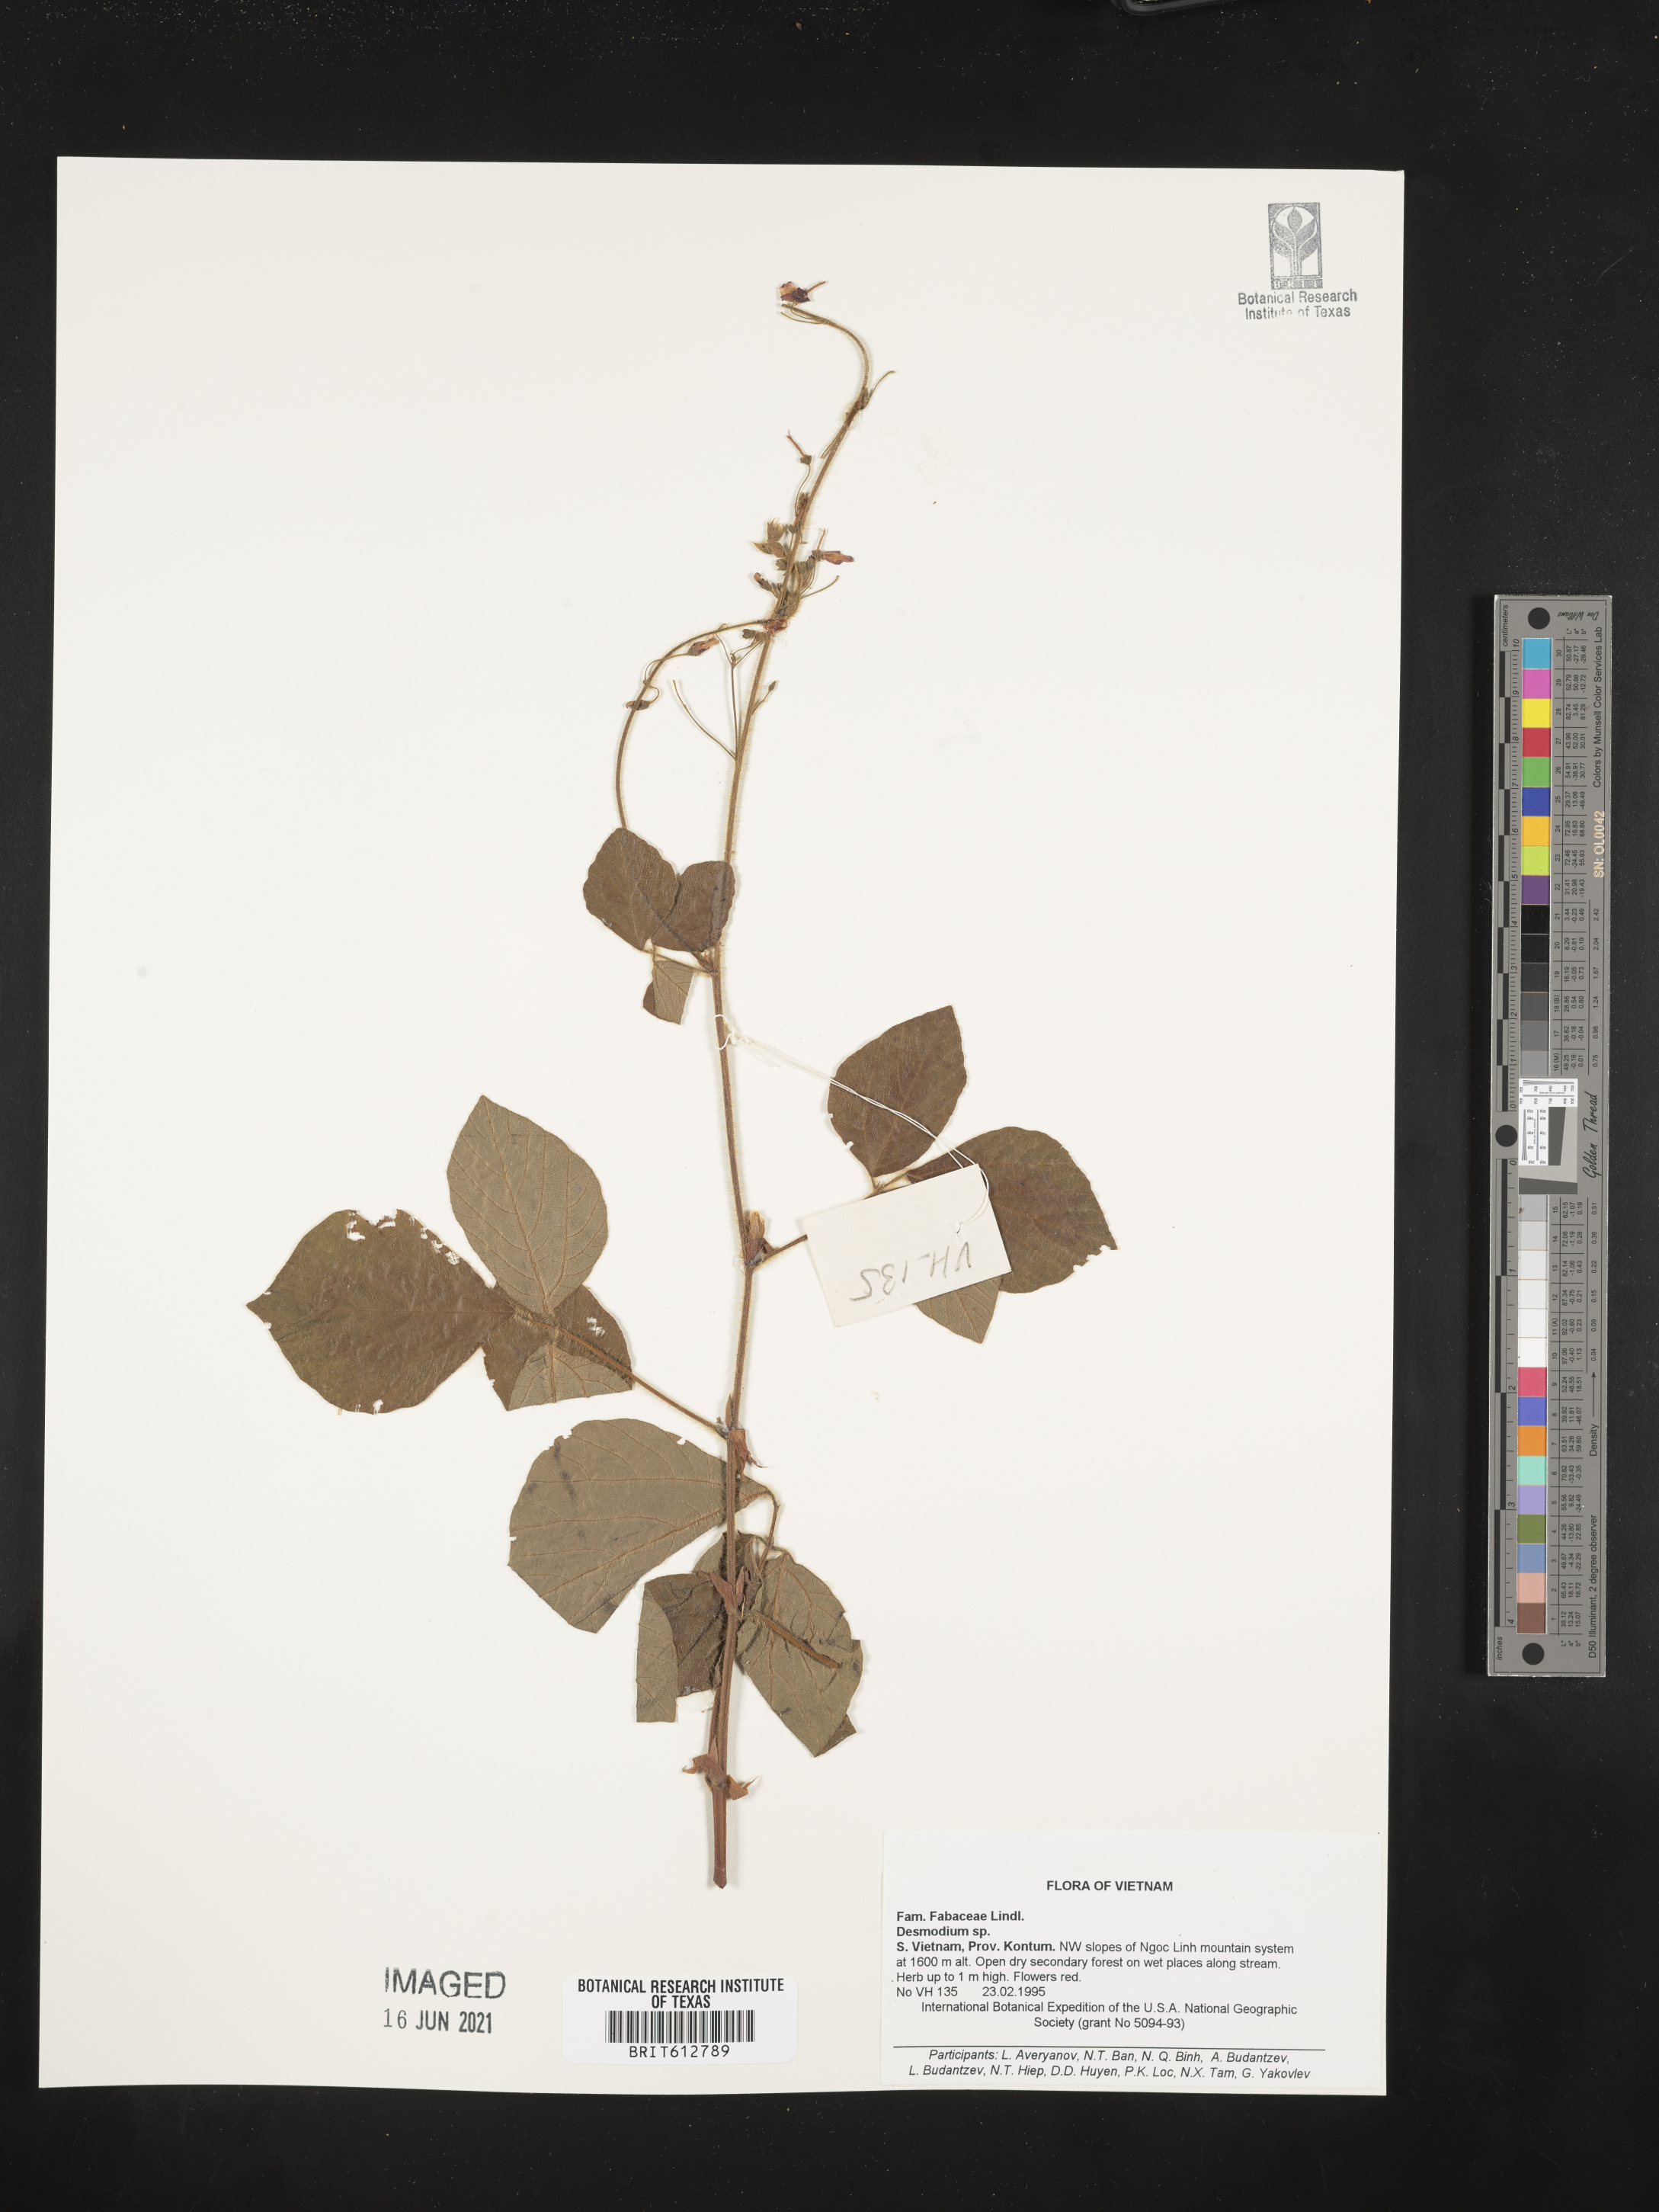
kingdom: Plantae
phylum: Tracheophyta
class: Magnoliopsida
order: Fabales
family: Fabaceae
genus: Desmodium
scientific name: Desmodium
